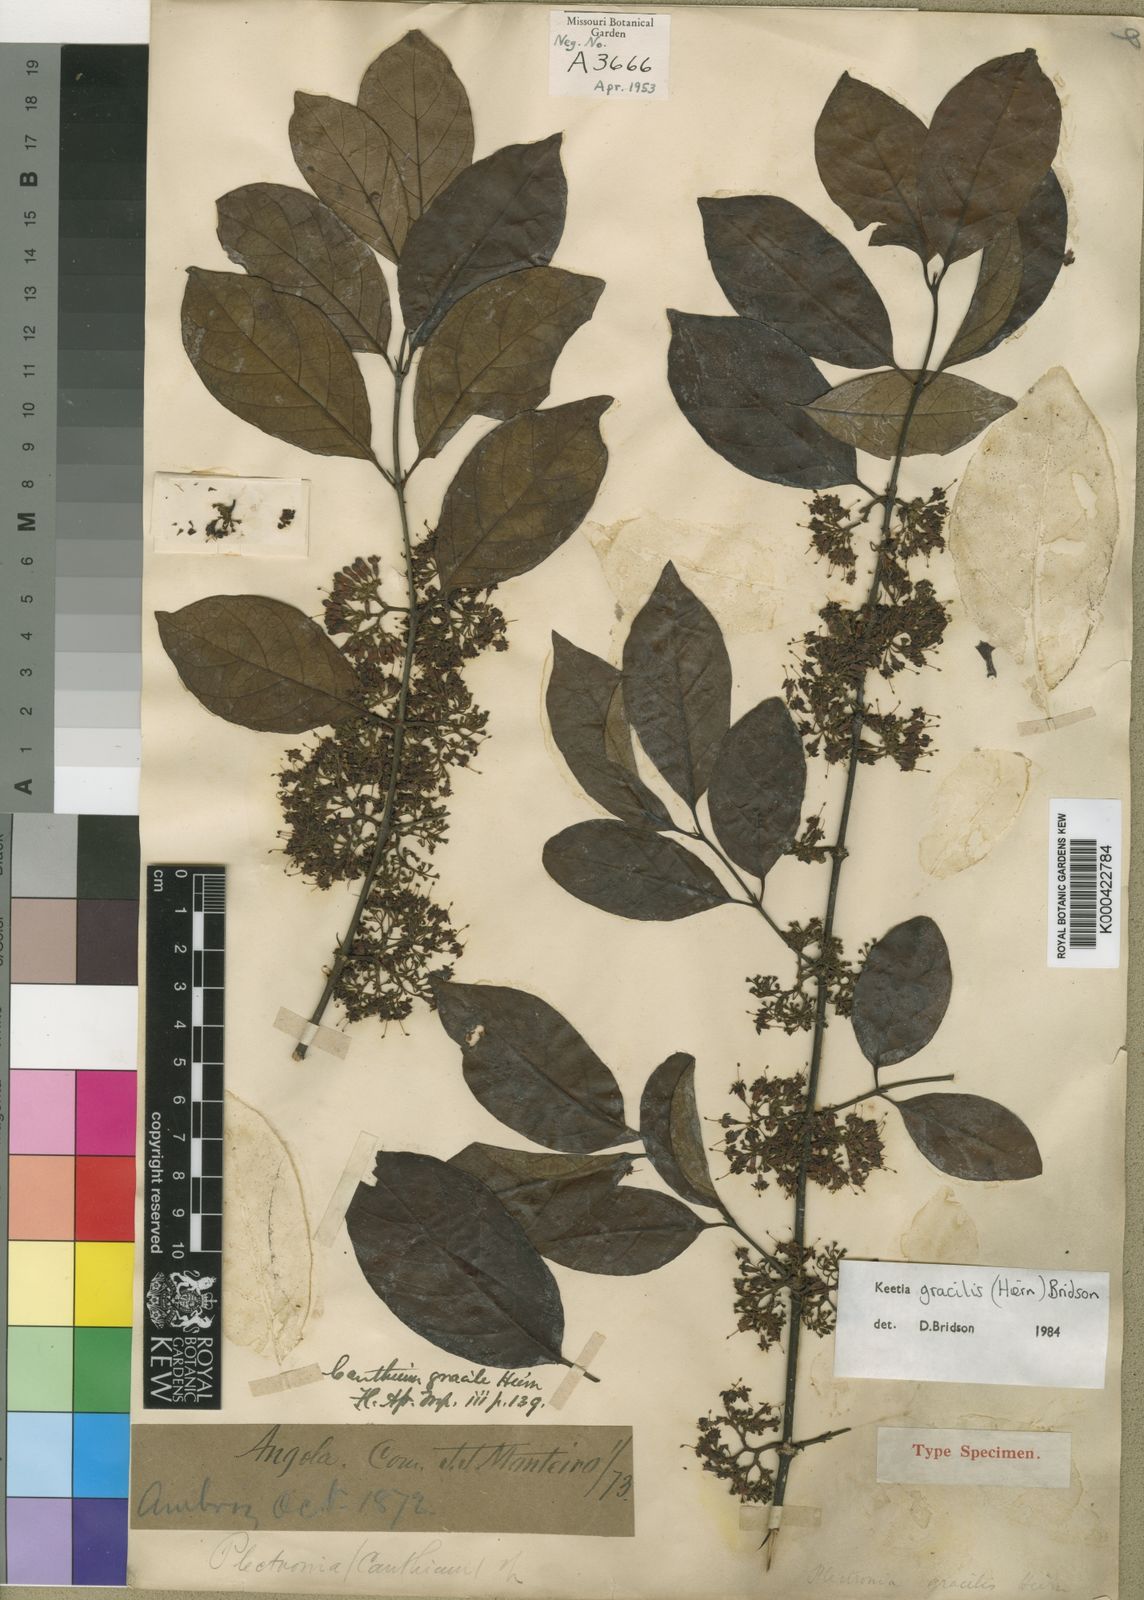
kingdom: Plantae
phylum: Tracheophyta
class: Magnoliopsida
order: Gentianales
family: Rubiaceae
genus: Keetia
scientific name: Keetia gracilis
